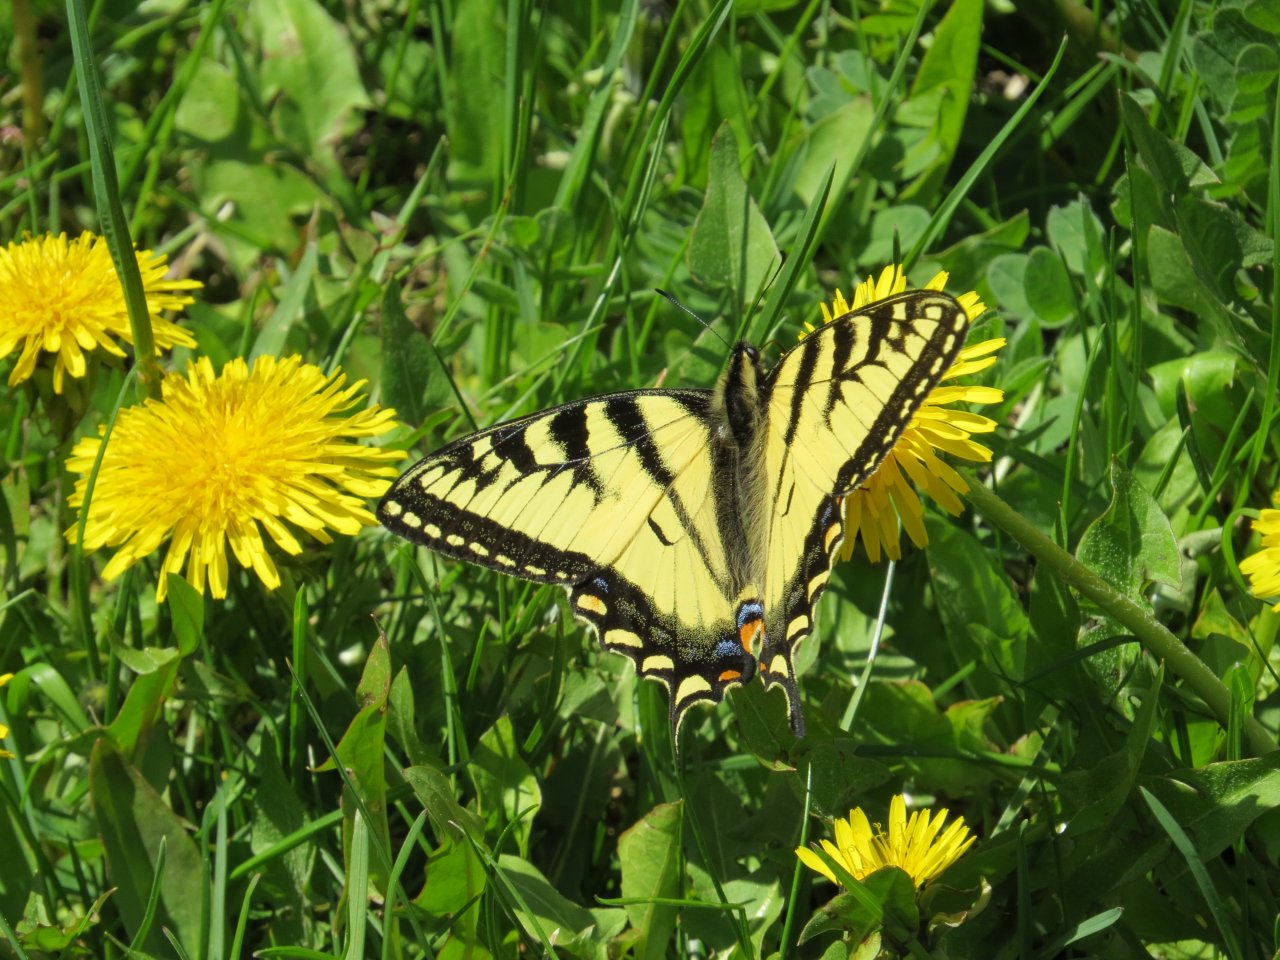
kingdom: Animalia
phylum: Arthropoda
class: Insecta
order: Lepidoptera
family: Papilionidae
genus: Pterourus
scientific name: Pterourus canadensis
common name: Canadian Tiger Swallowtail
